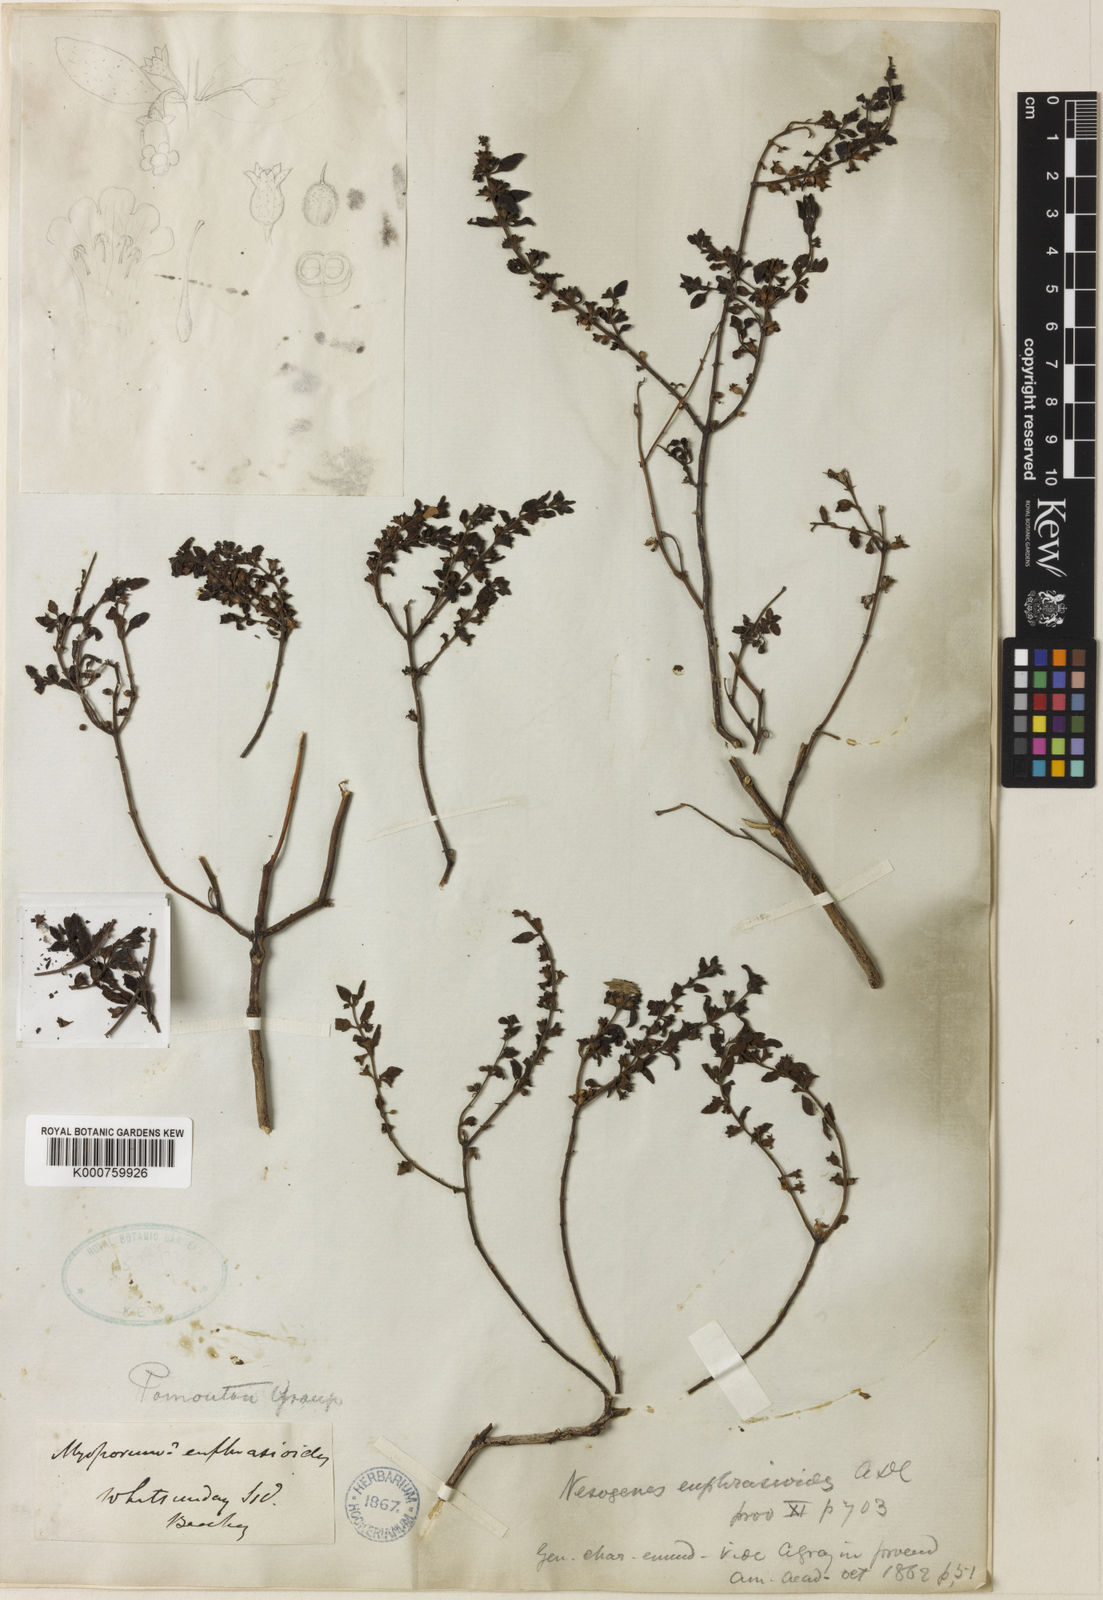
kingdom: Plantae
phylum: Tracheophyta
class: Magnoliopsida
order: Lamiales
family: Orobanchaceae
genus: Nesogenes
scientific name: Nesogenes euphrasioides
